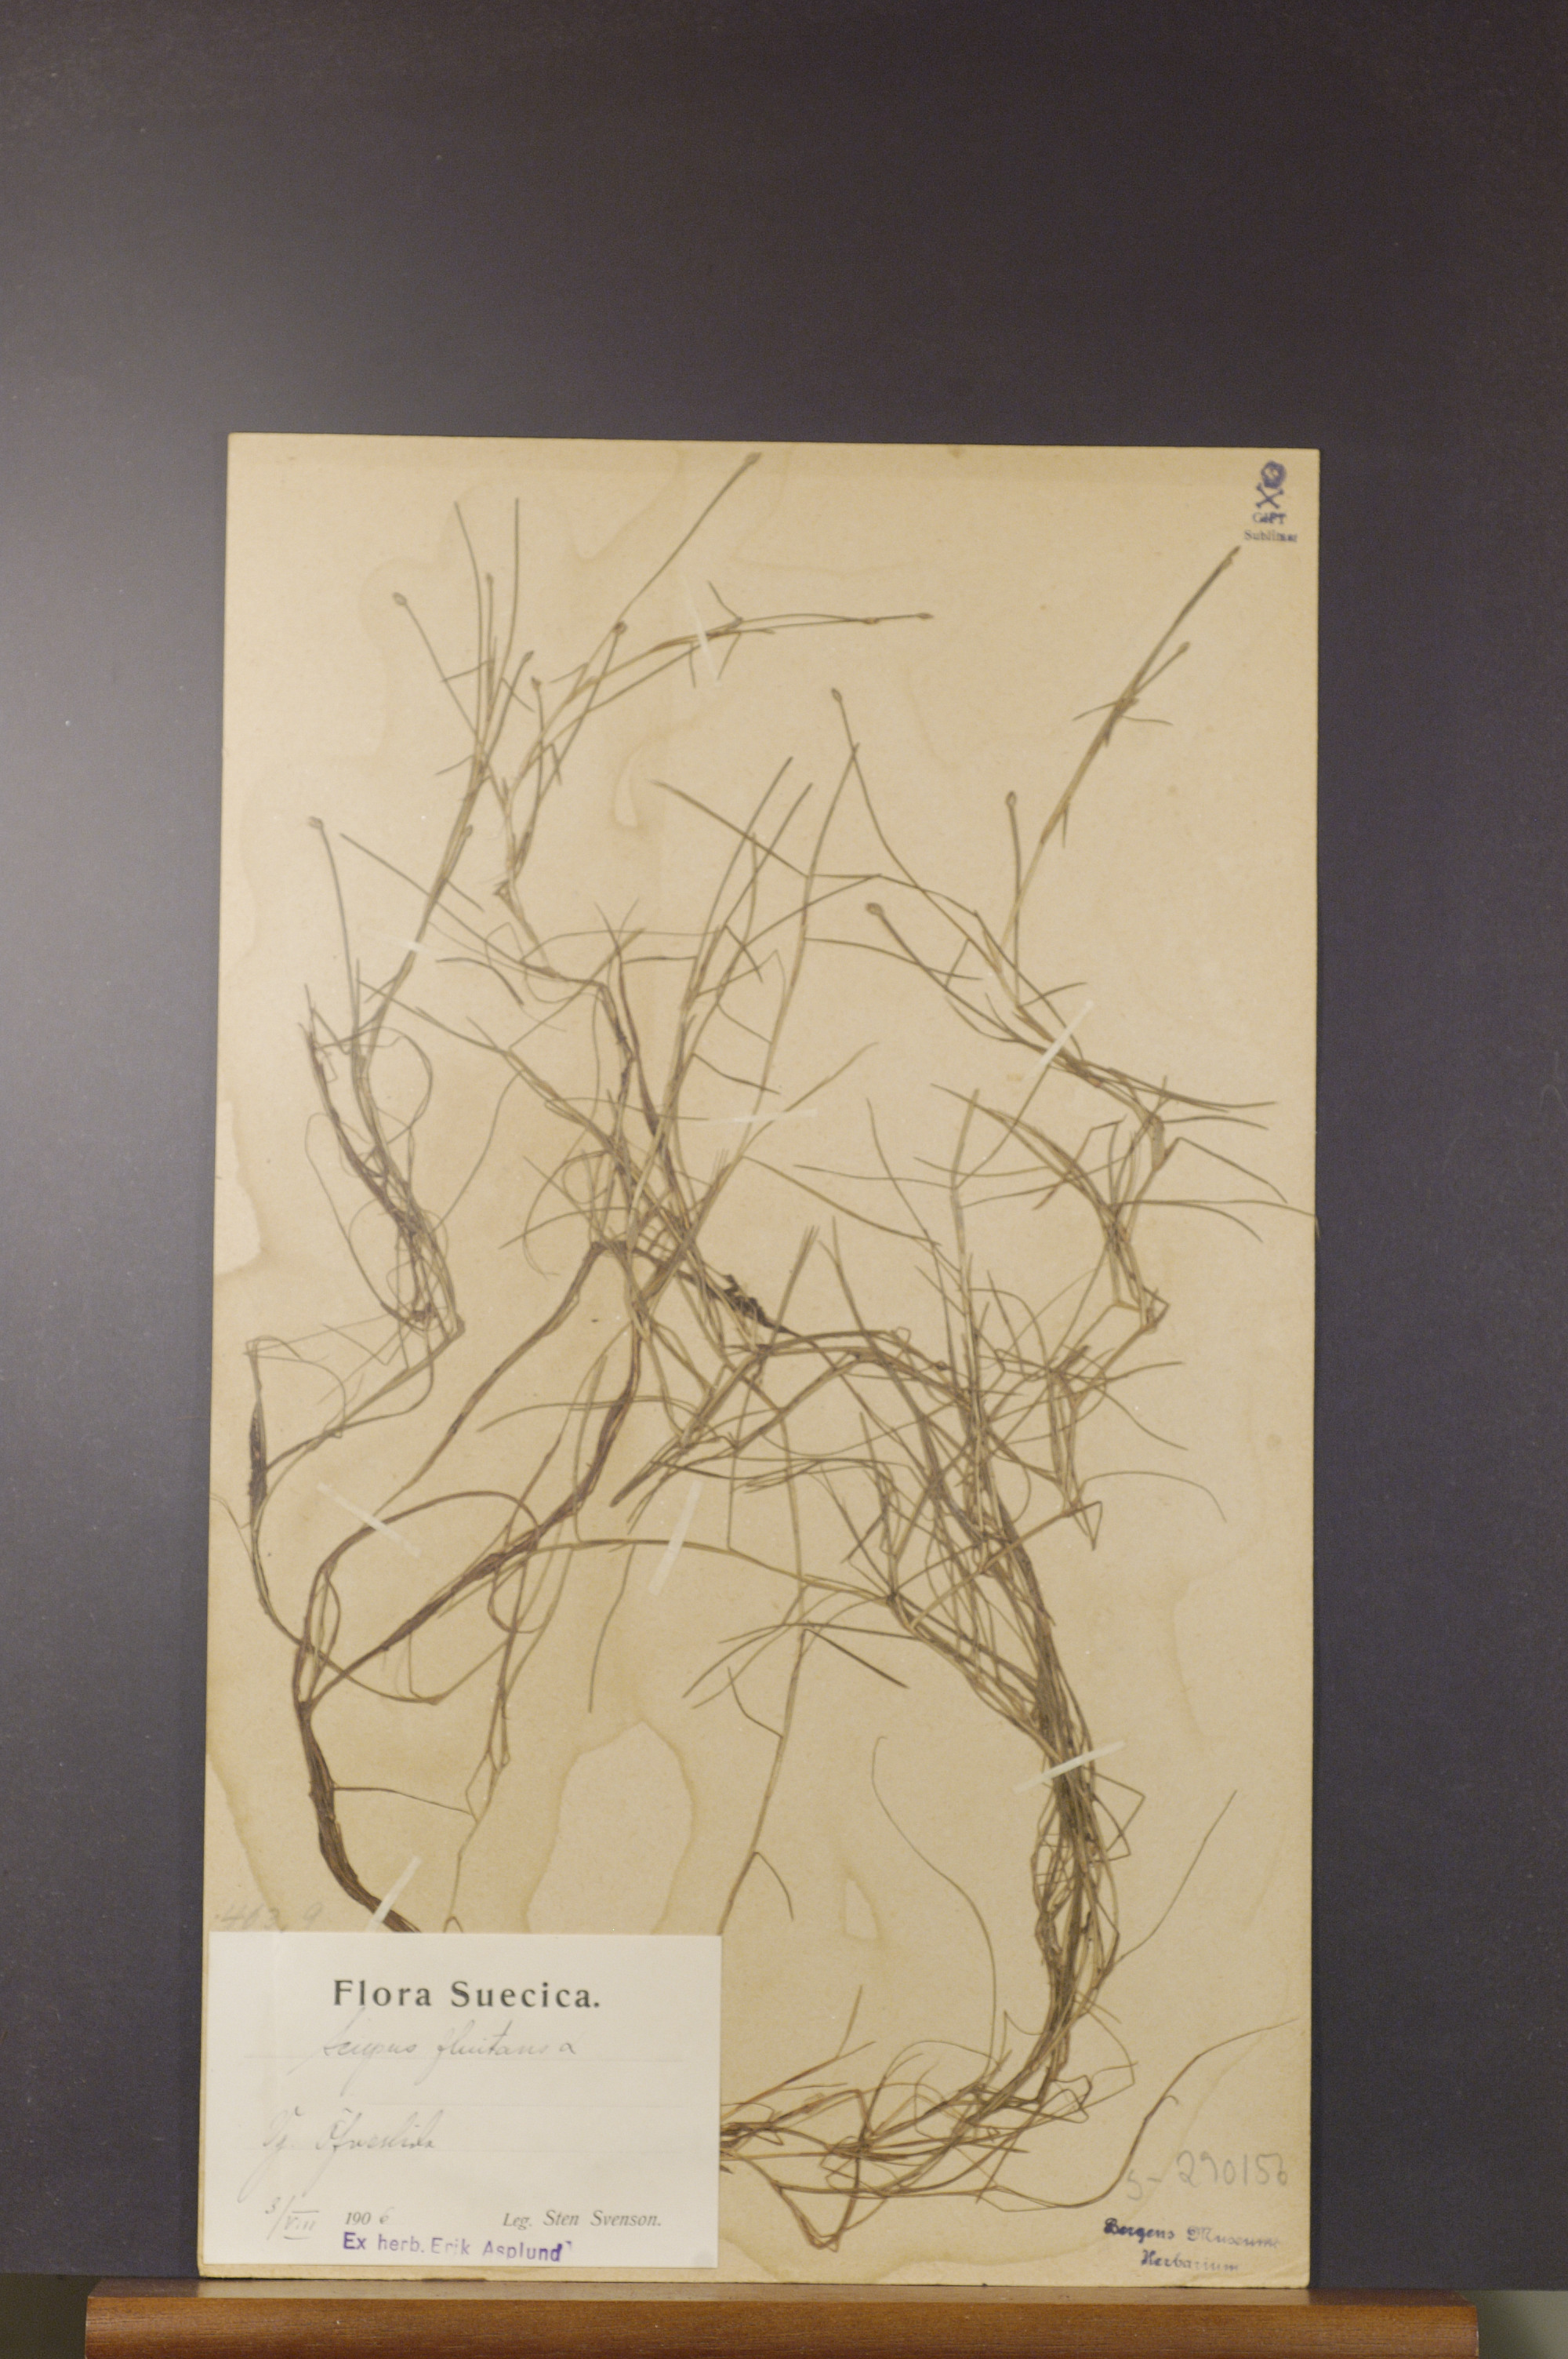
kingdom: Plantae
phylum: Tracheophyta
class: Liliopsida
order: Poales
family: Cyperaceae
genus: Isolepis
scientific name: Isolepis fluitans
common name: Floating club-rush
